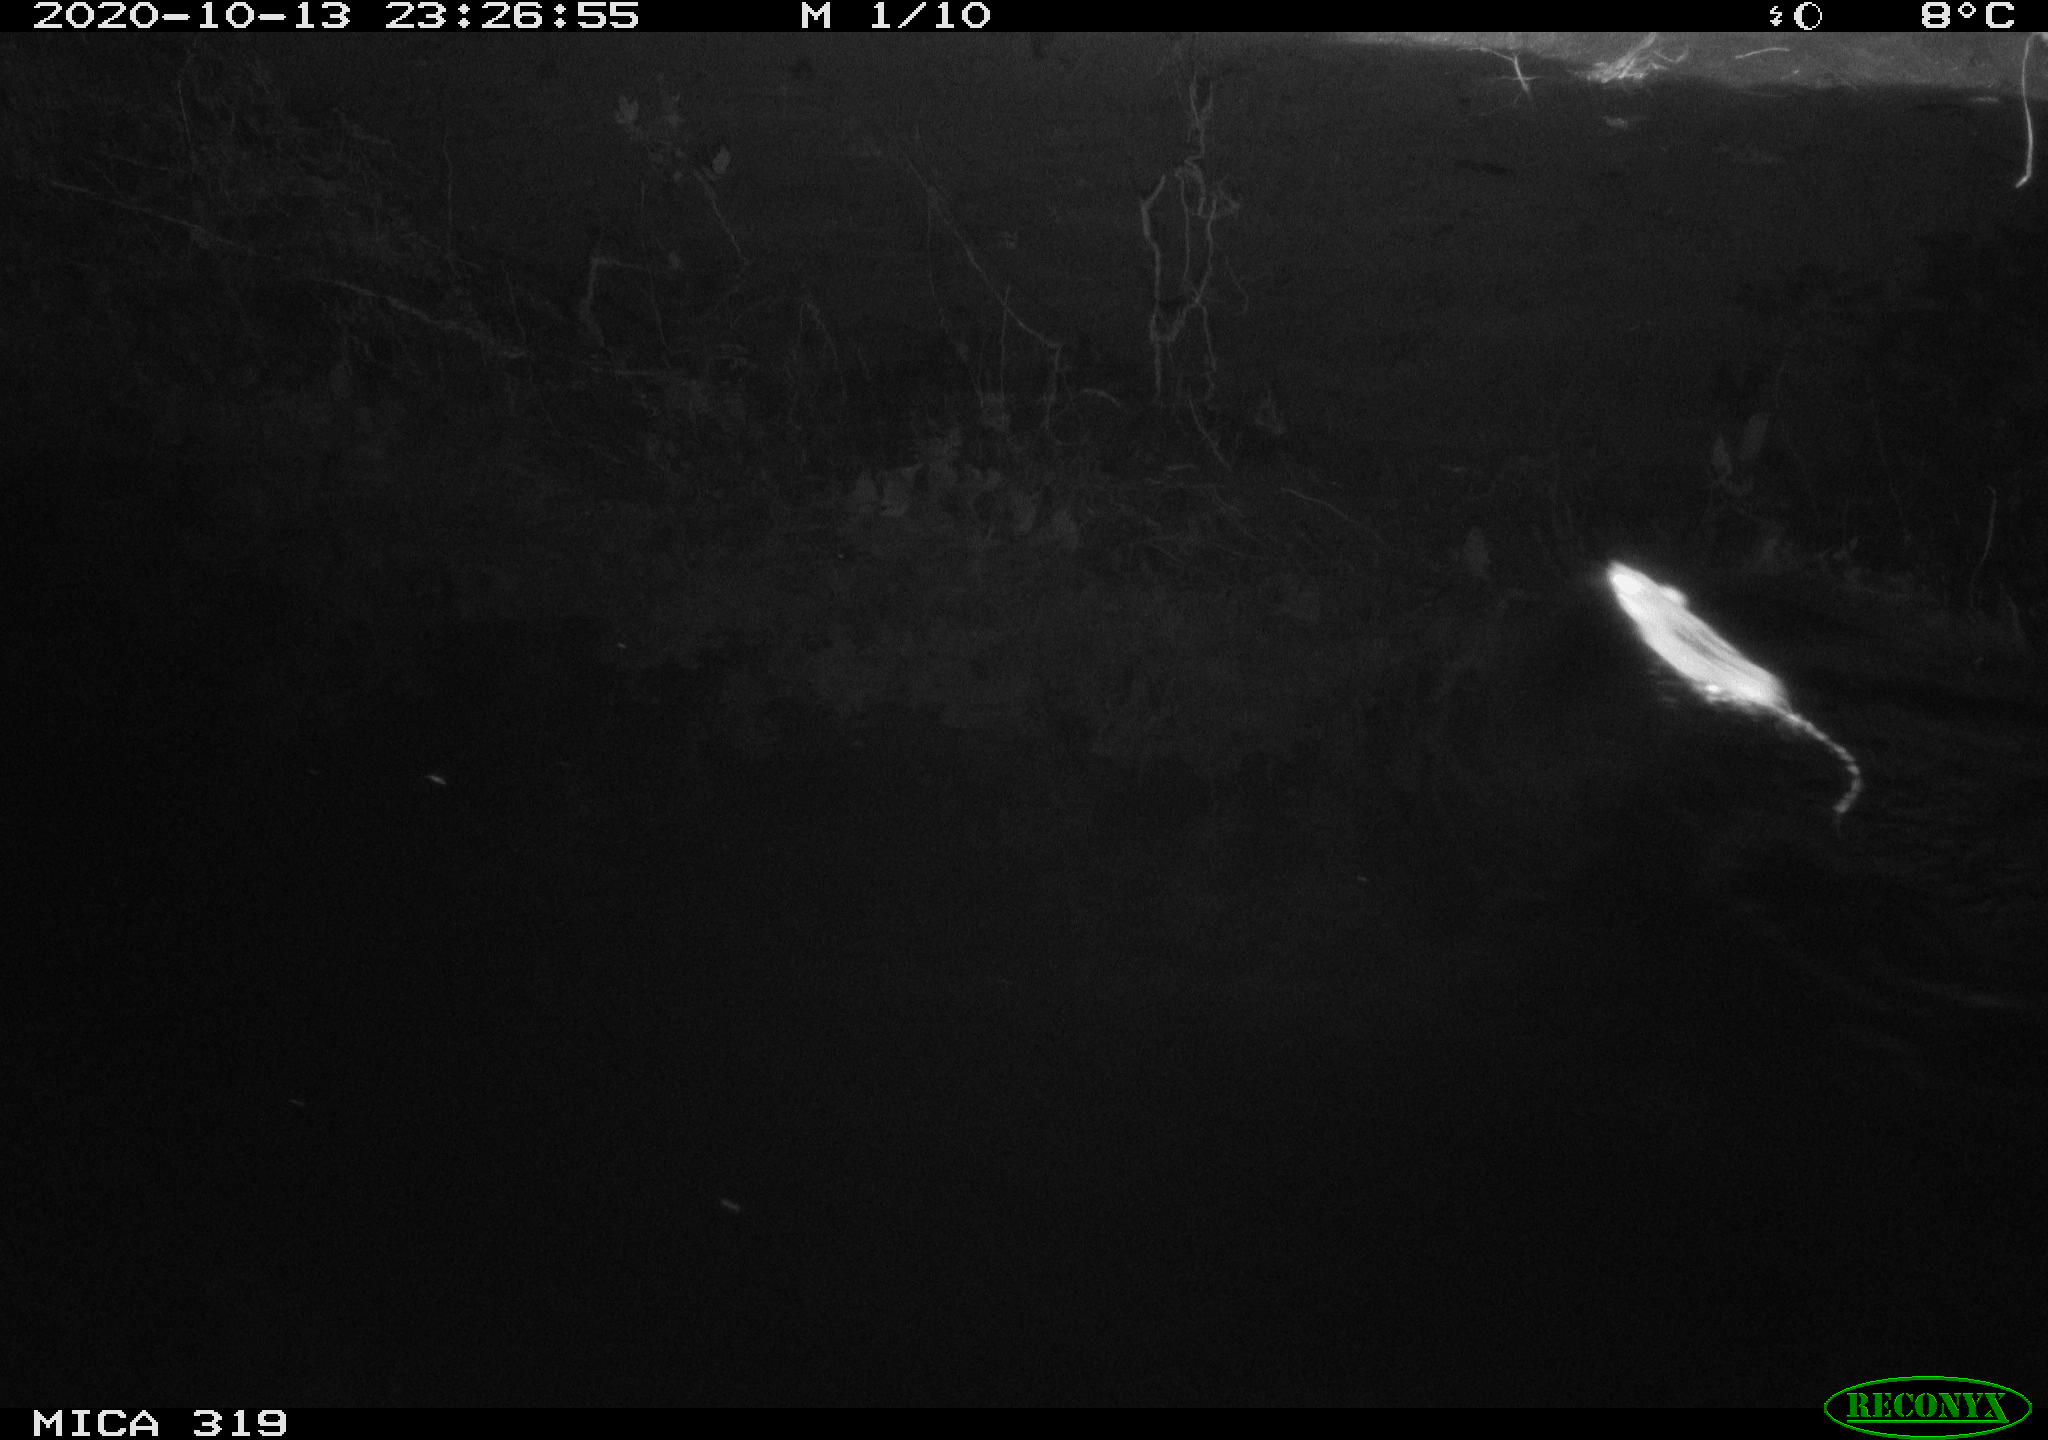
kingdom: Animalia
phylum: Chordata
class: Mammalia
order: Rodentia
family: Muridae
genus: Rattus
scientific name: Rattus norvegicus
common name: Brown rat
